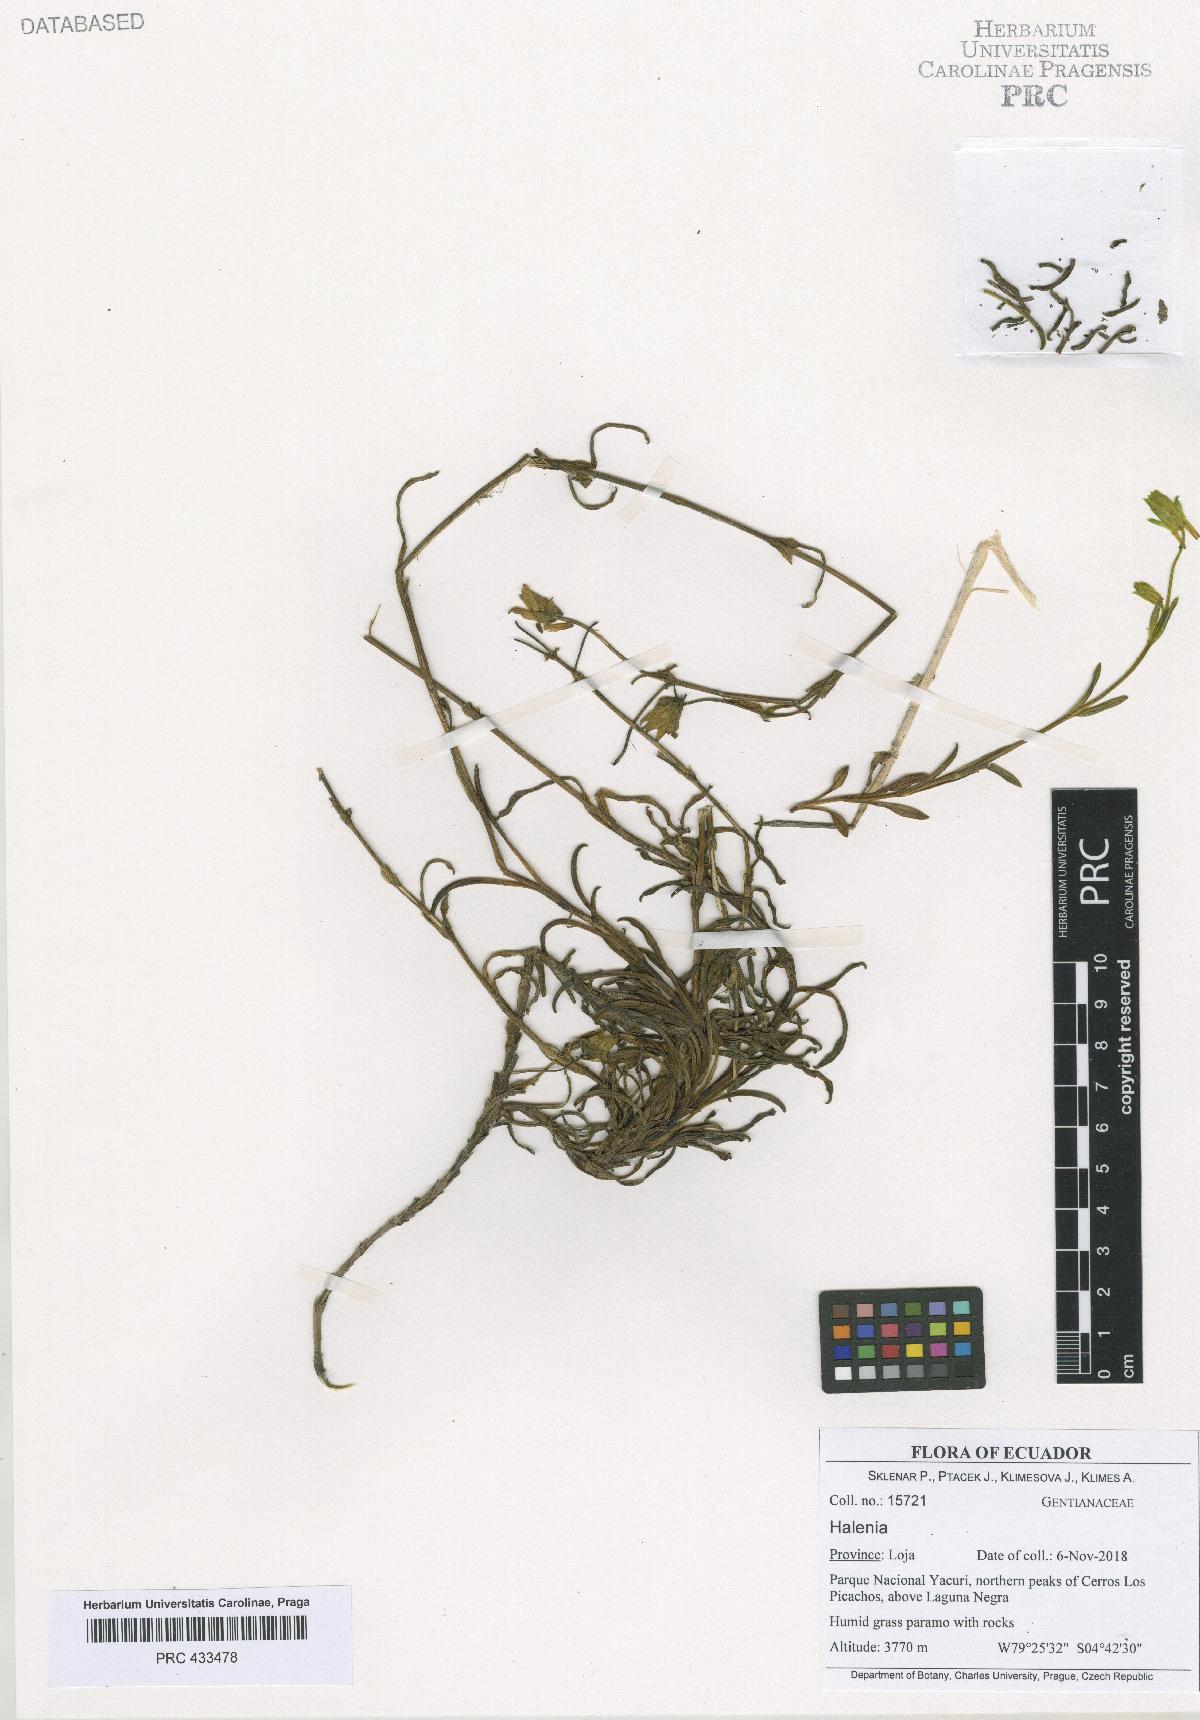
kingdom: Plantae
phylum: Tracheophyta
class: Magnoliopsida
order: Gentianales
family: Gentianaceae
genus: Halenia
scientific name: Halenia
